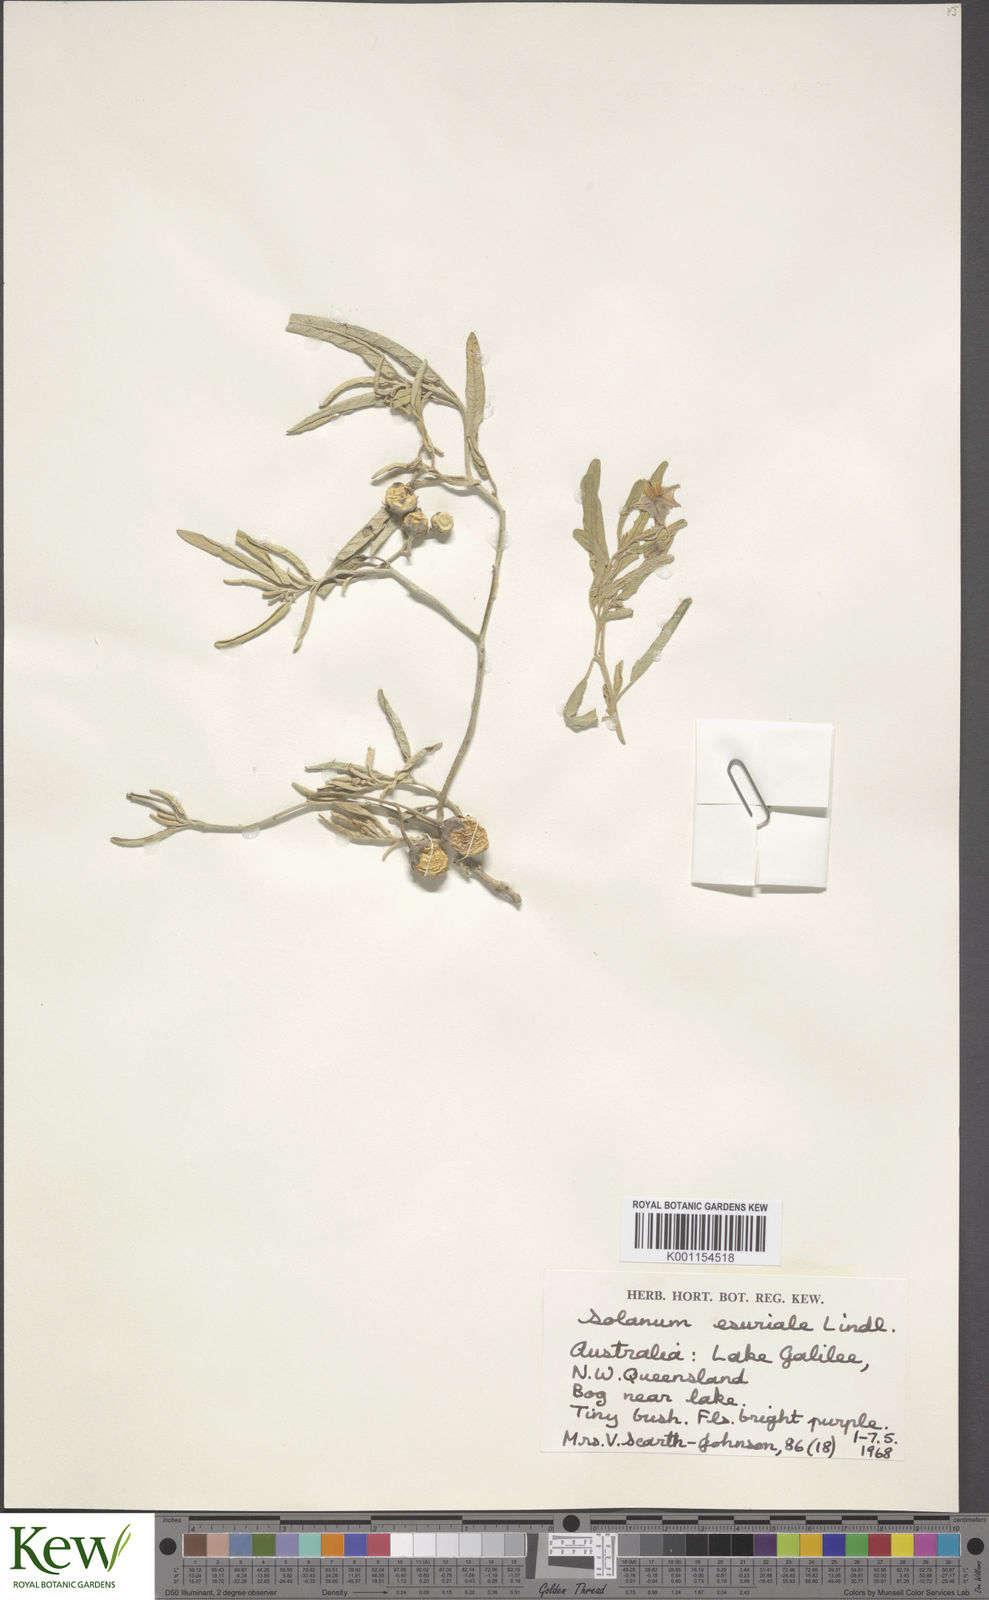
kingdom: Plantae
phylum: Tracheophyta
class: Magnoliopsida
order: Solanales
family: Solanaceae
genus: Solanum
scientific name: Solanum esuriale
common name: Wild tomato
